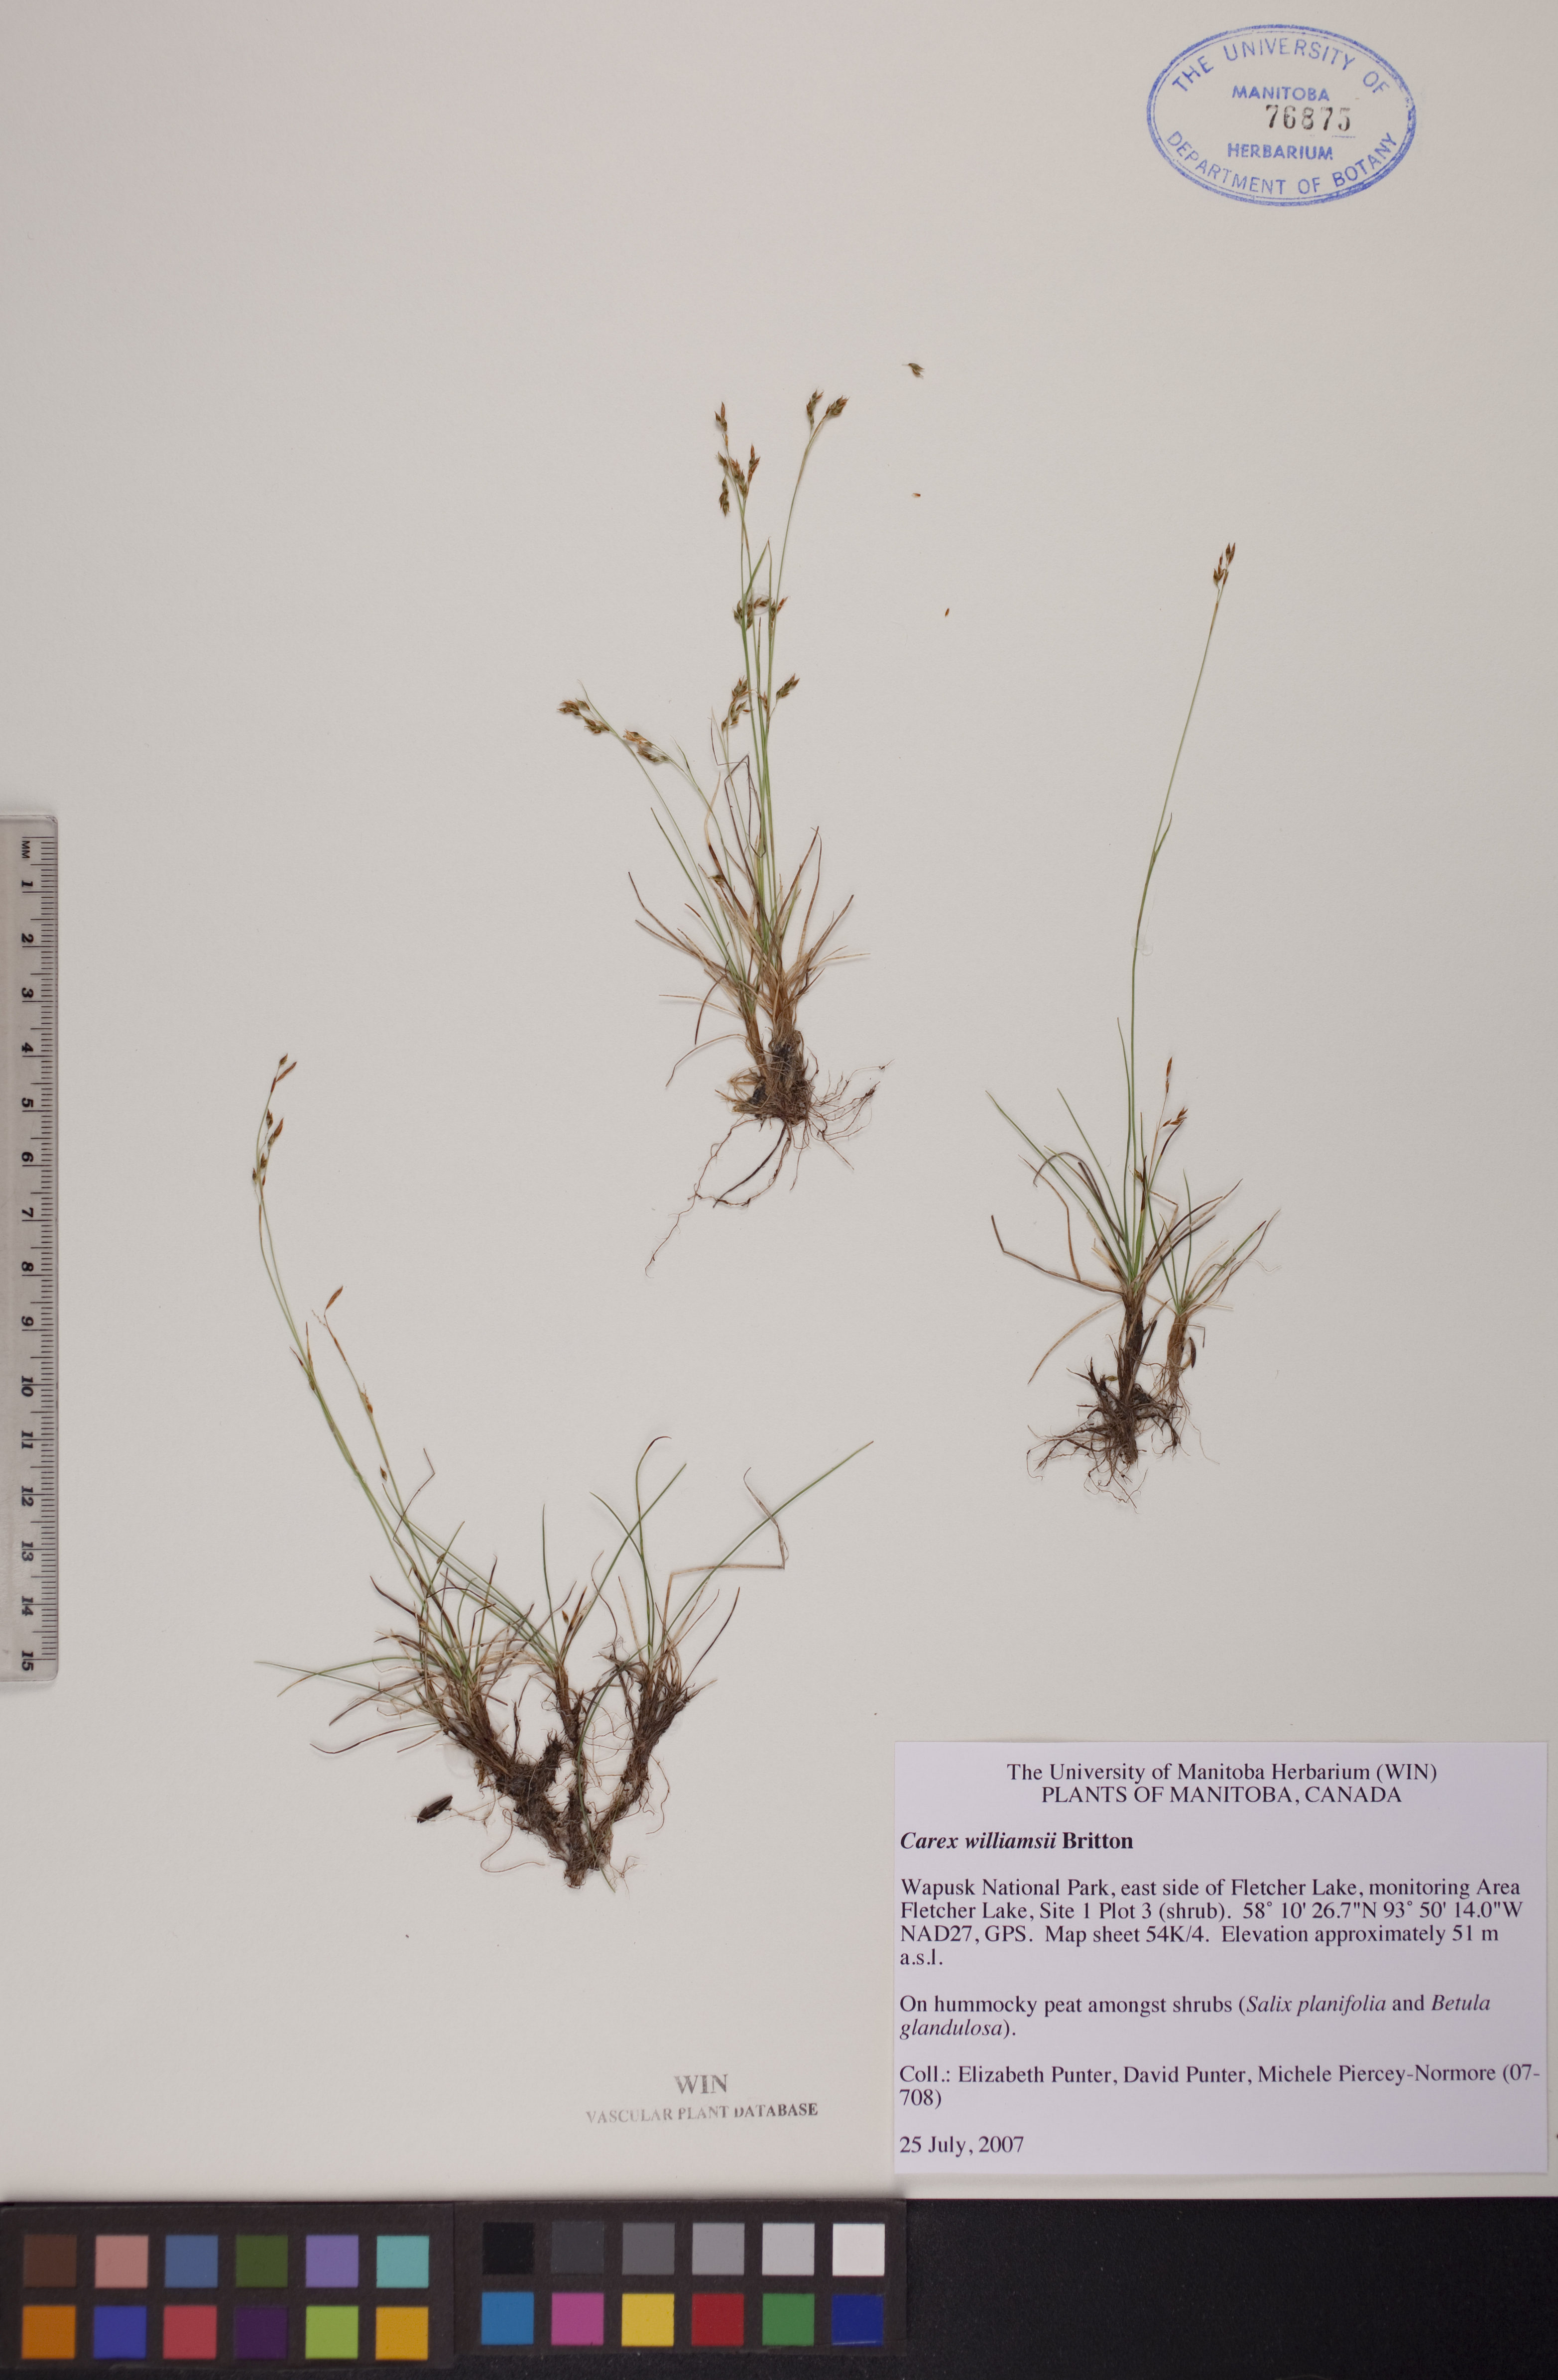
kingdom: Plantae
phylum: Tracheophyta
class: Liliopsida
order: Poales
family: Cyperaceae
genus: Carex
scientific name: Carex williamsii
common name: Williams' sedge
